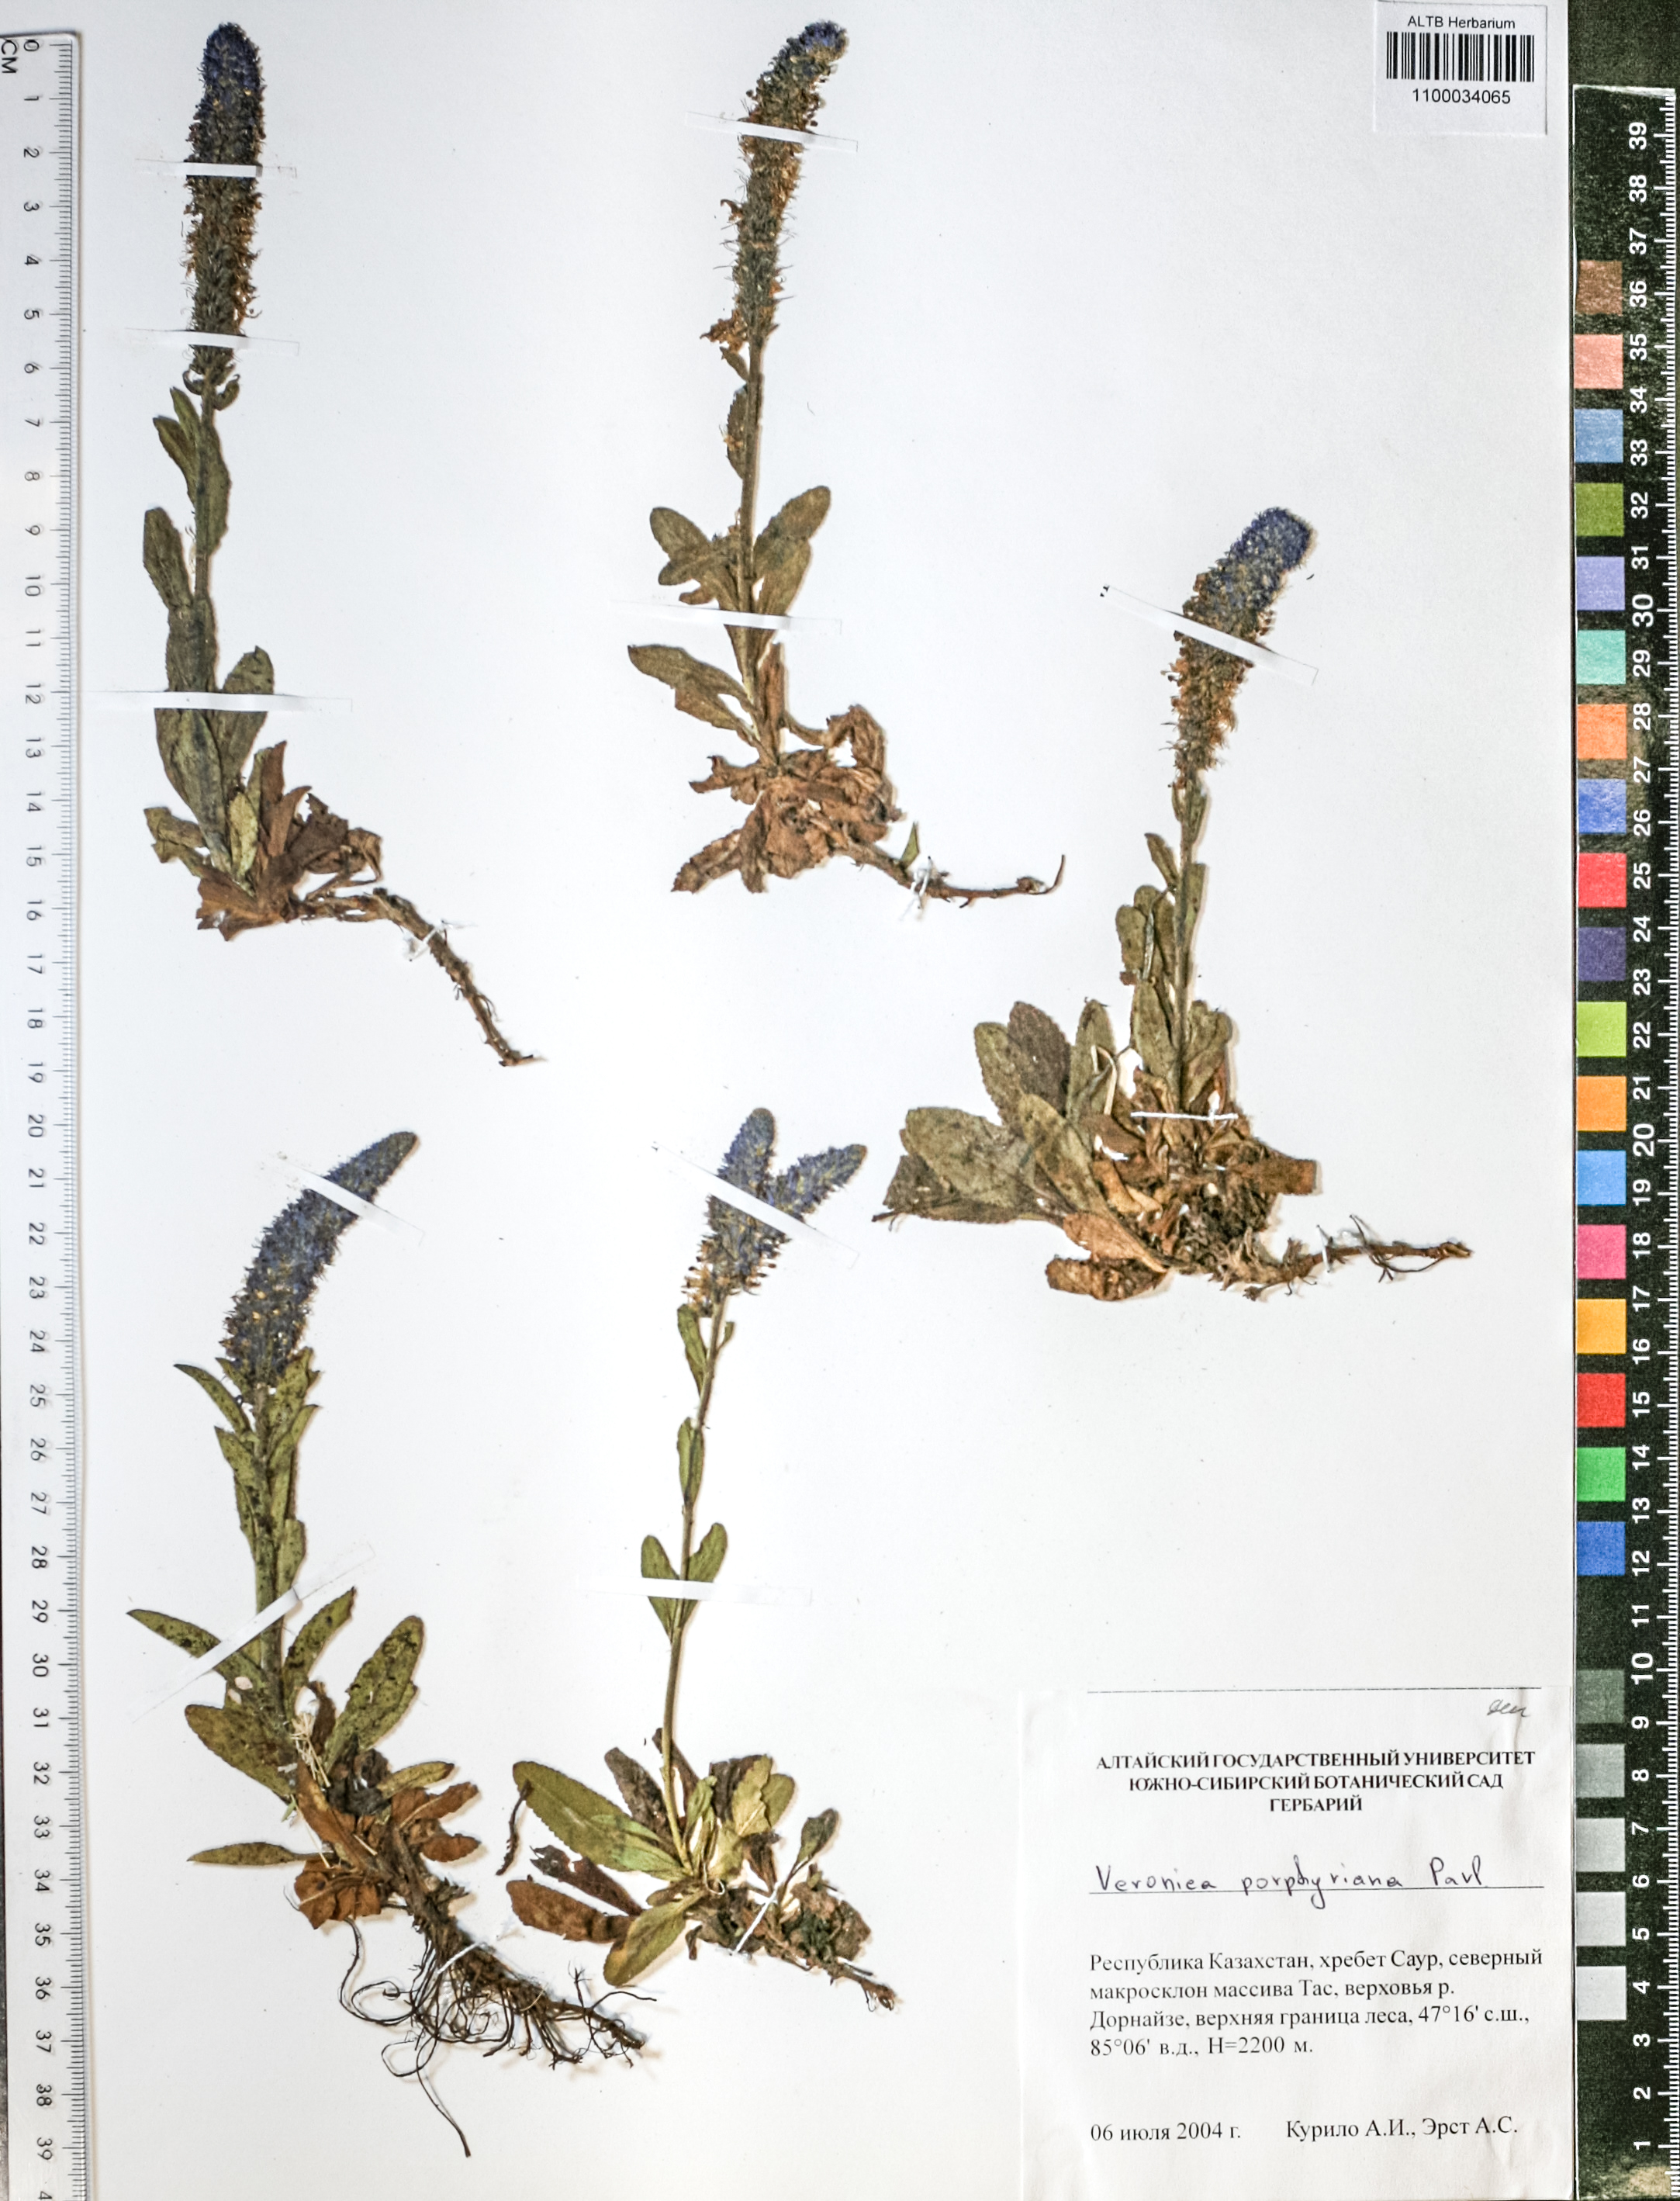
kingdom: Plantae
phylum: Tracheophyta
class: Magnoliopsida
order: Lamiales
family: Plantaginaceae
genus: Veronica
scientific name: Veronica porphyriana
